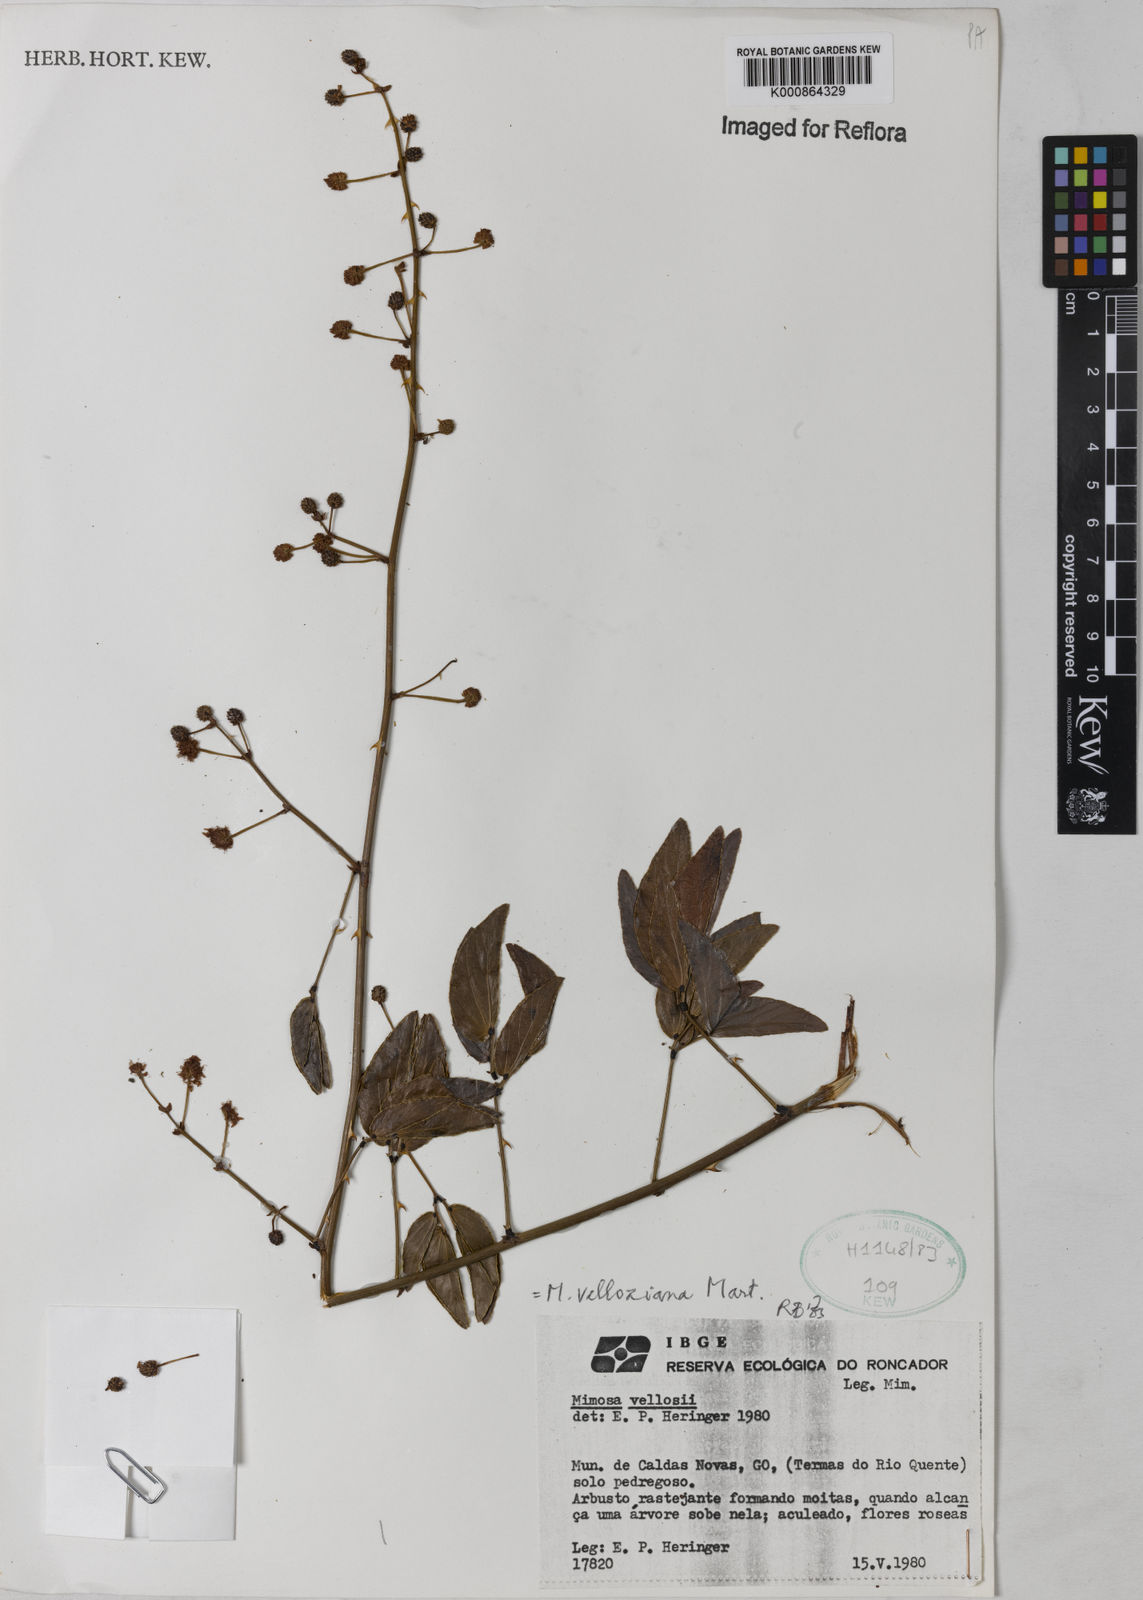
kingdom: Plantae
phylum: Tracheophyta
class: Magnoliopsida
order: Fabales
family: Fabaceae
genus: Mimosa
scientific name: Mimosa velloziana
